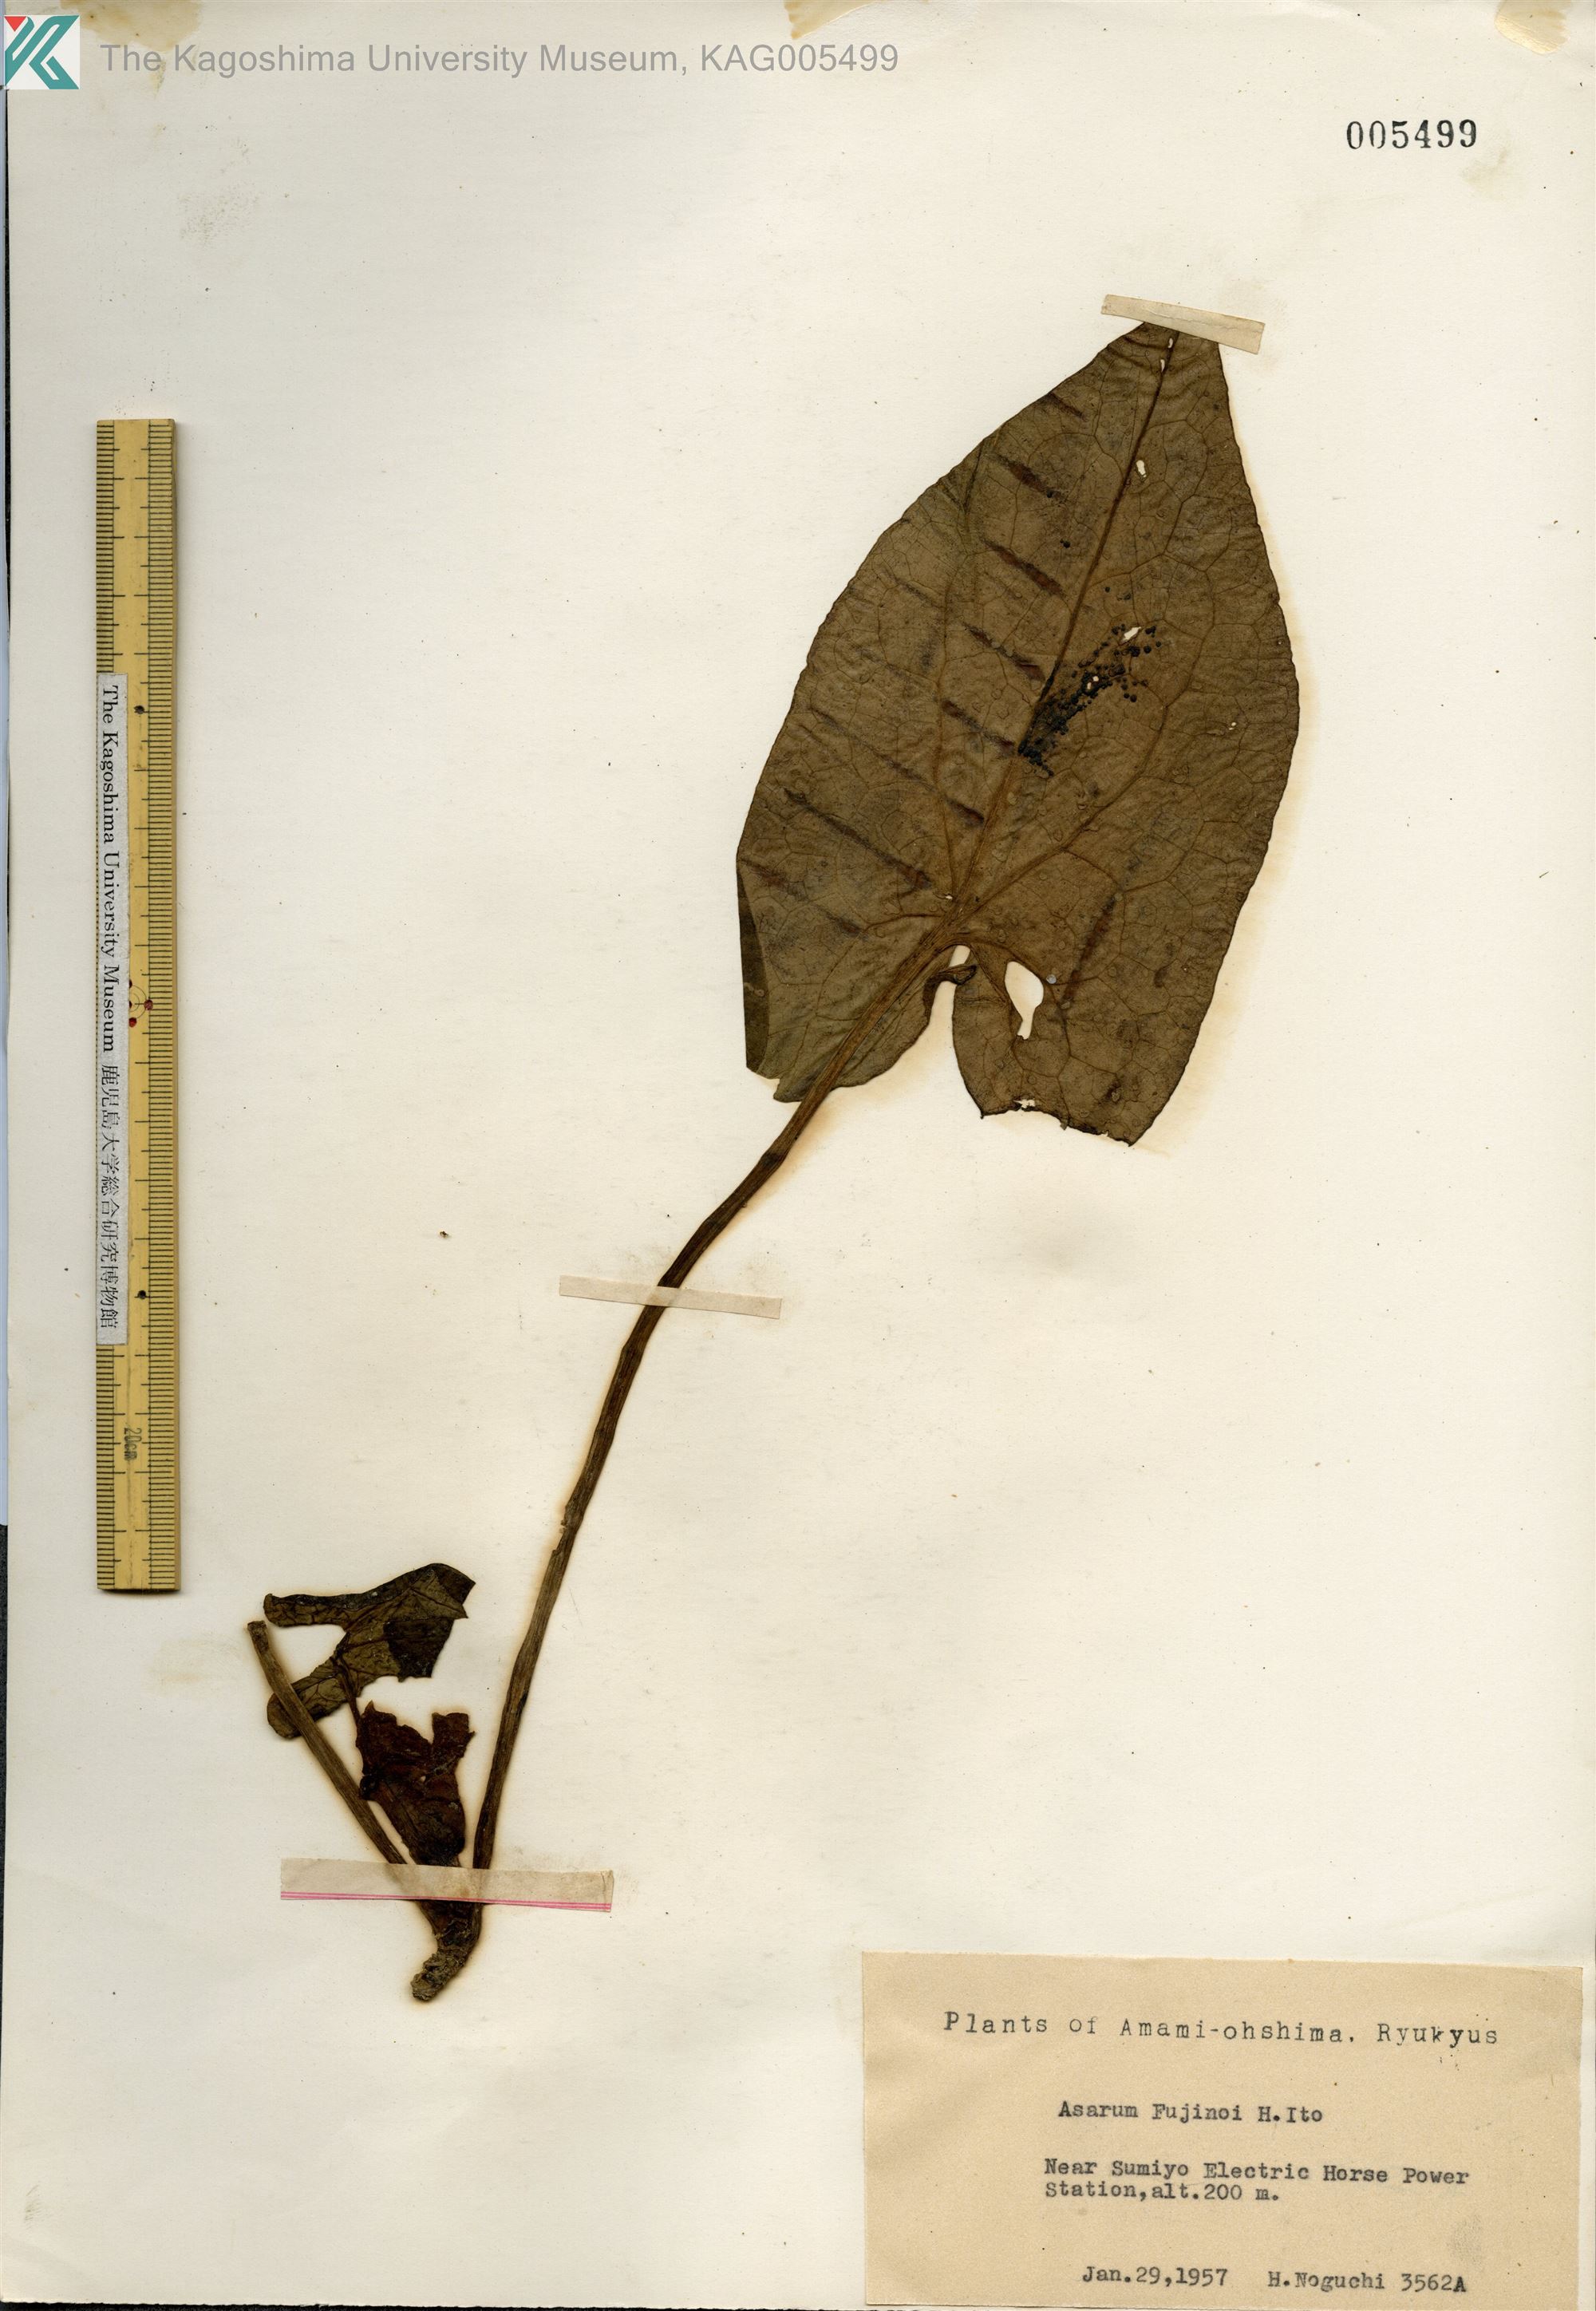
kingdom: Plantae
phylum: Tracheophyta
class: Magnoliopsida
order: Piperales
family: Aristolochiaceae
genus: Asarum
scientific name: Asarum
